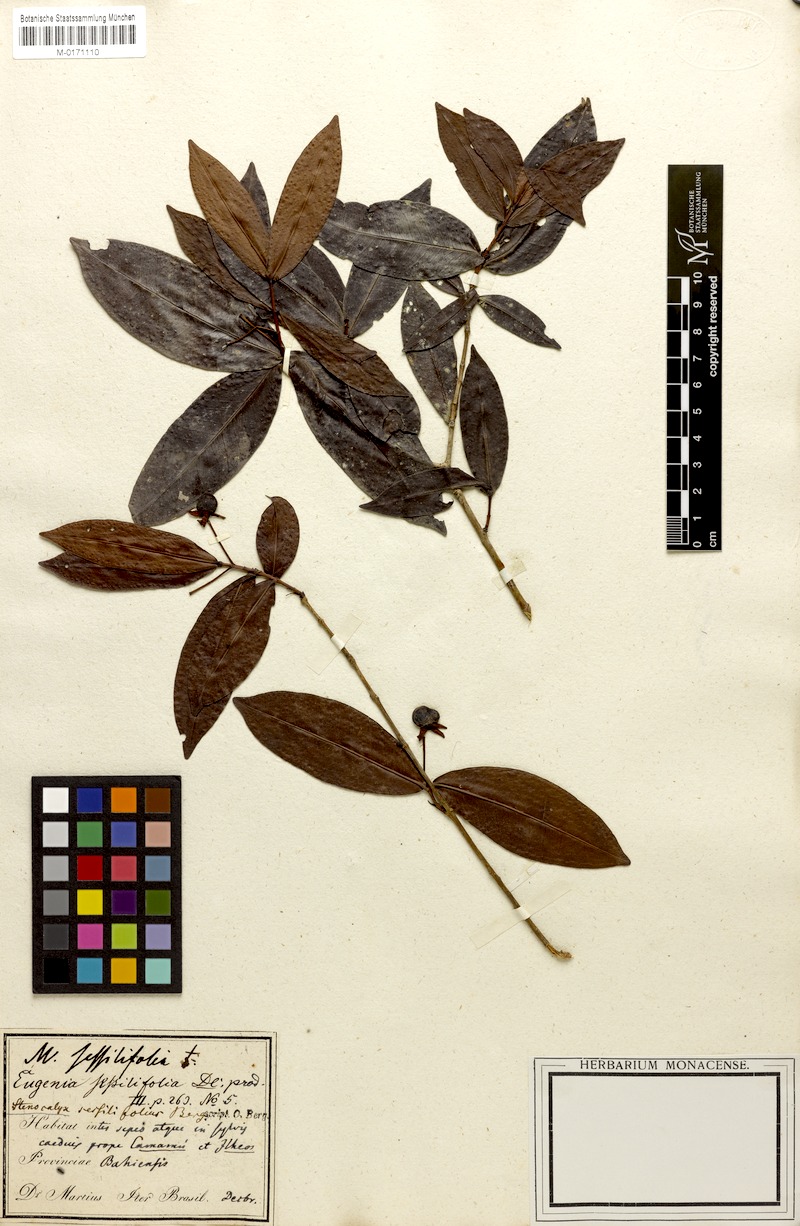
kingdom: Plantae
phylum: Tracheophyta
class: Magnoliopsida
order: Myrtales
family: Myrtaceae
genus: Eugenia
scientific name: Eugenia sessilifolia
